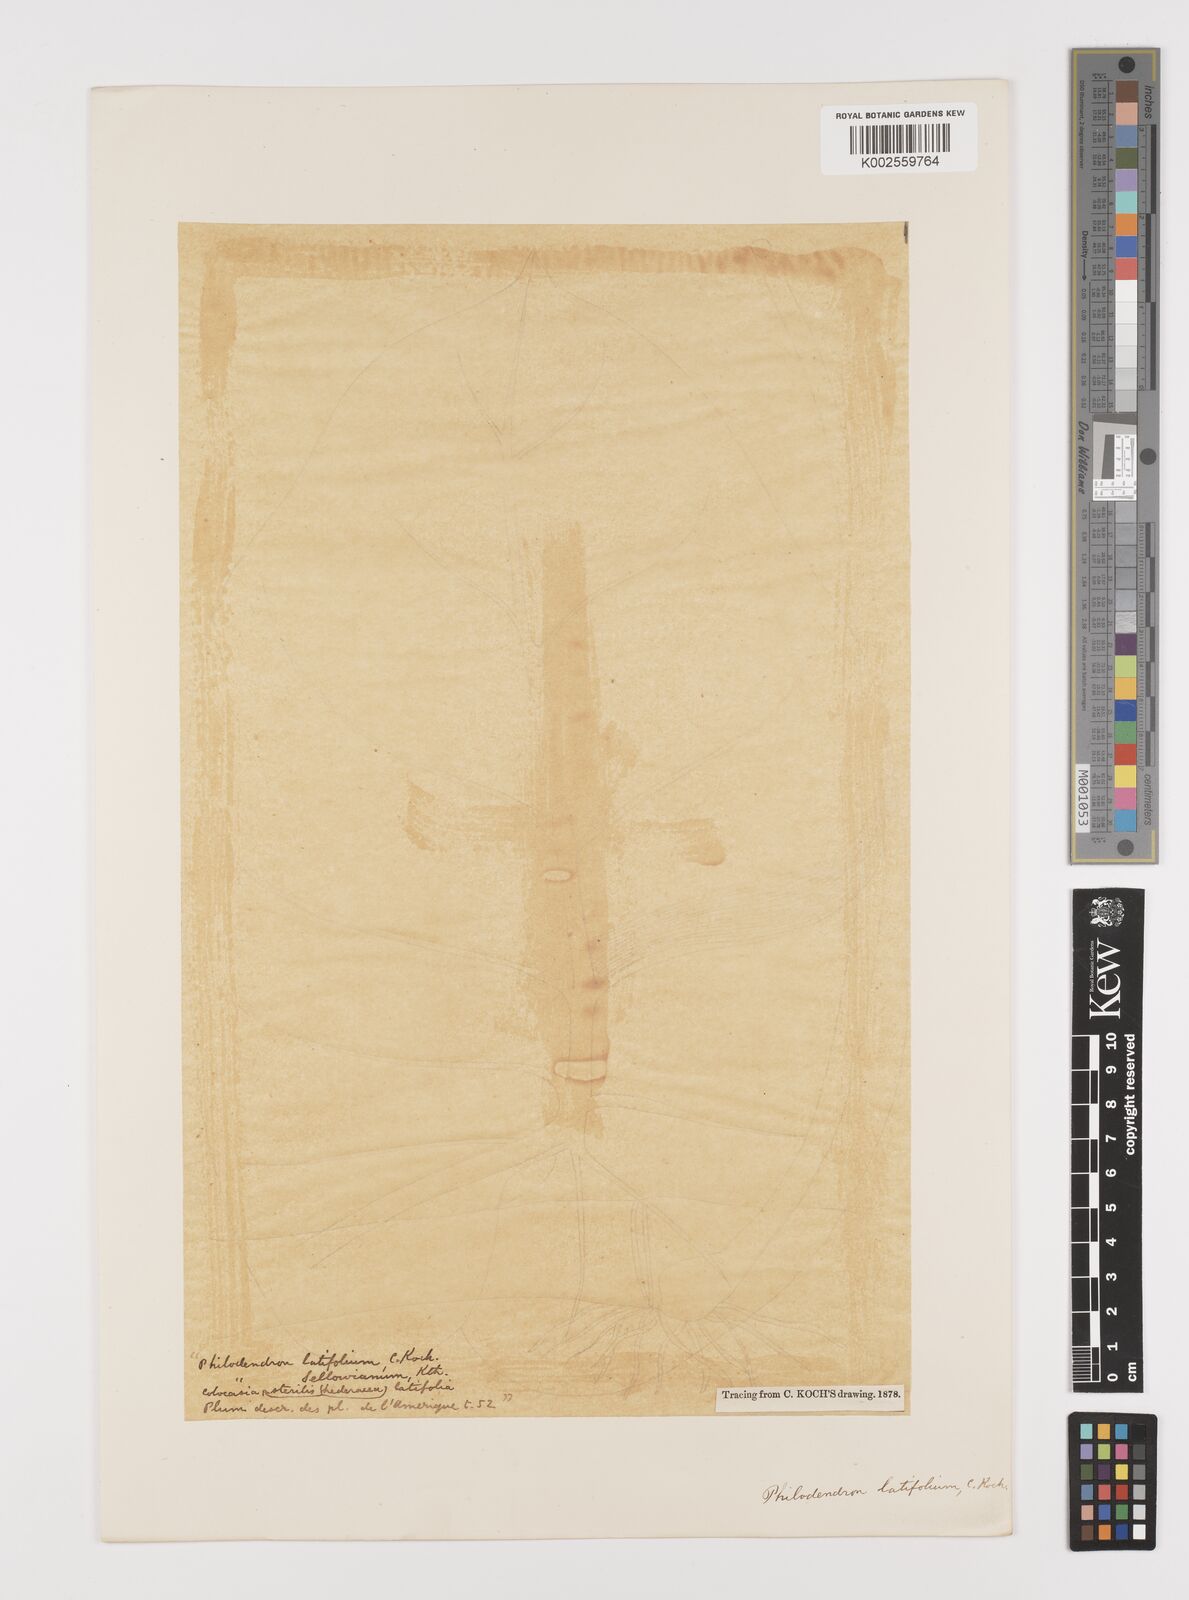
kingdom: Plantae
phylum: Tracheophyta
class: Liliopsida
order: Alismatales
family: Araceae
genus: Philodendron
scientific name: Philodendron latifolium
